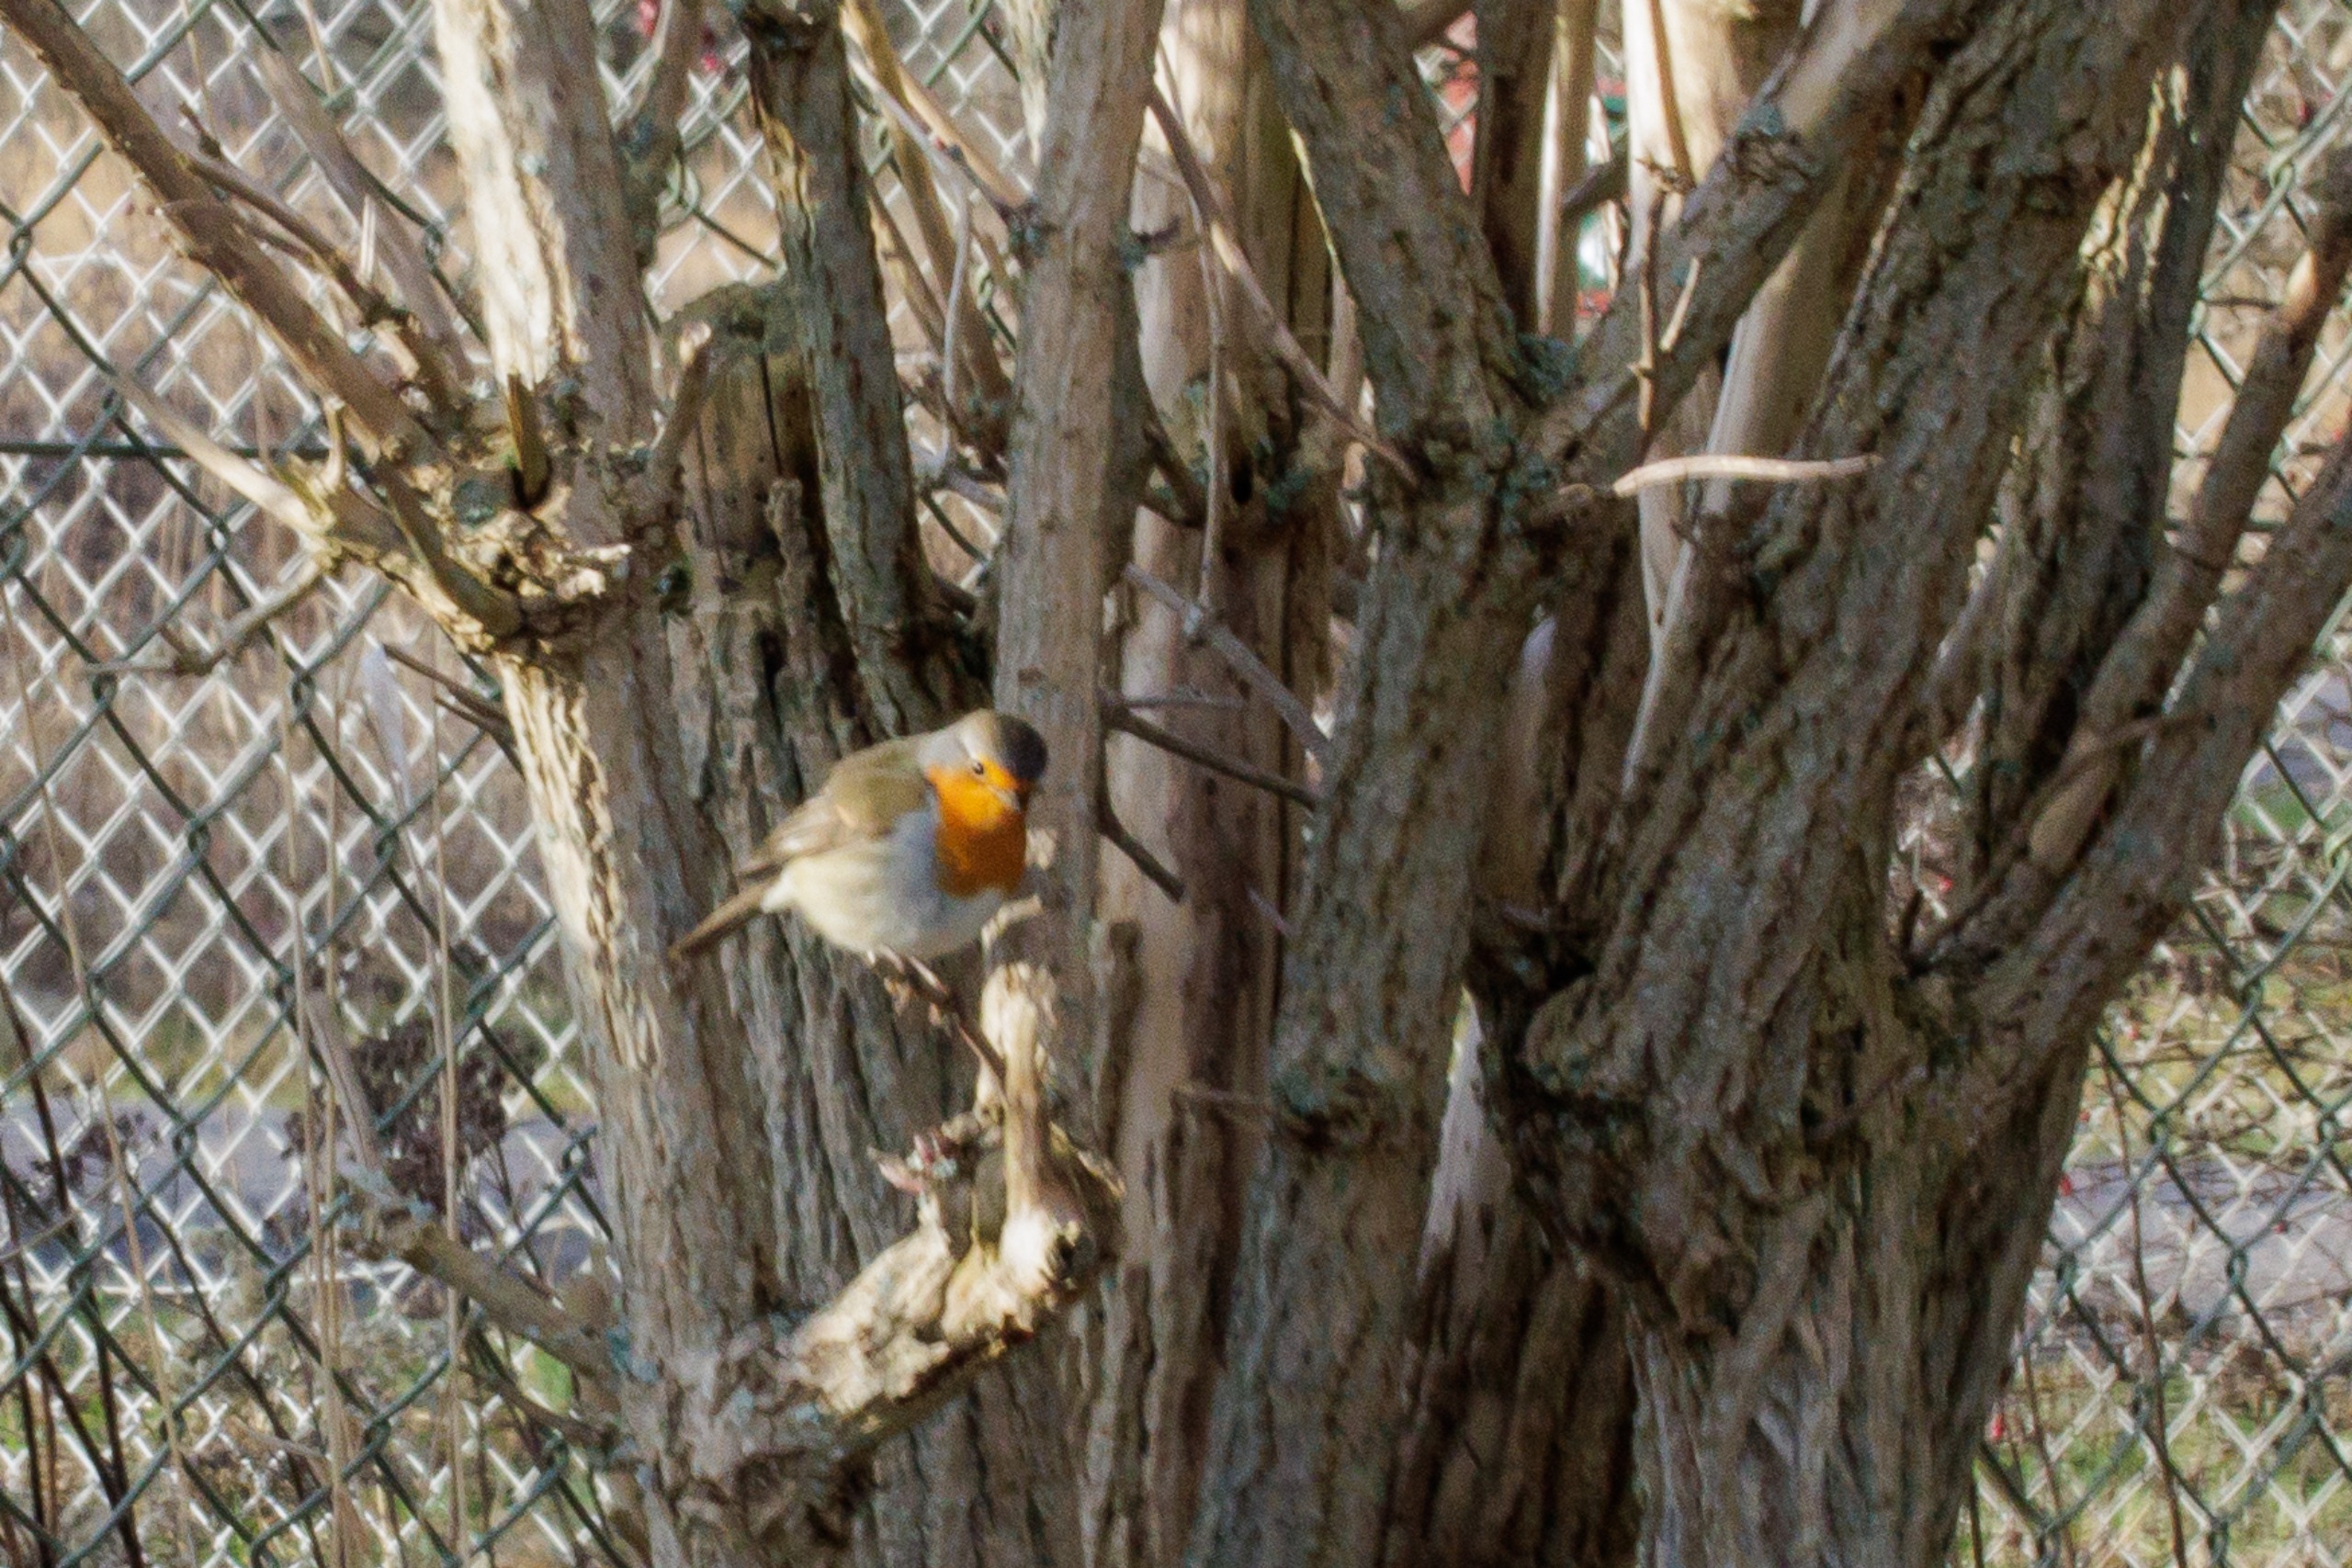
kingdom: Animalia
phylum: Chordata
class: Aves
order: Passeriformes
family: Muscicapidae
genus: Erithacus
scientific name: Erithacus rubecula
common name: Rødhals/rødkælk
